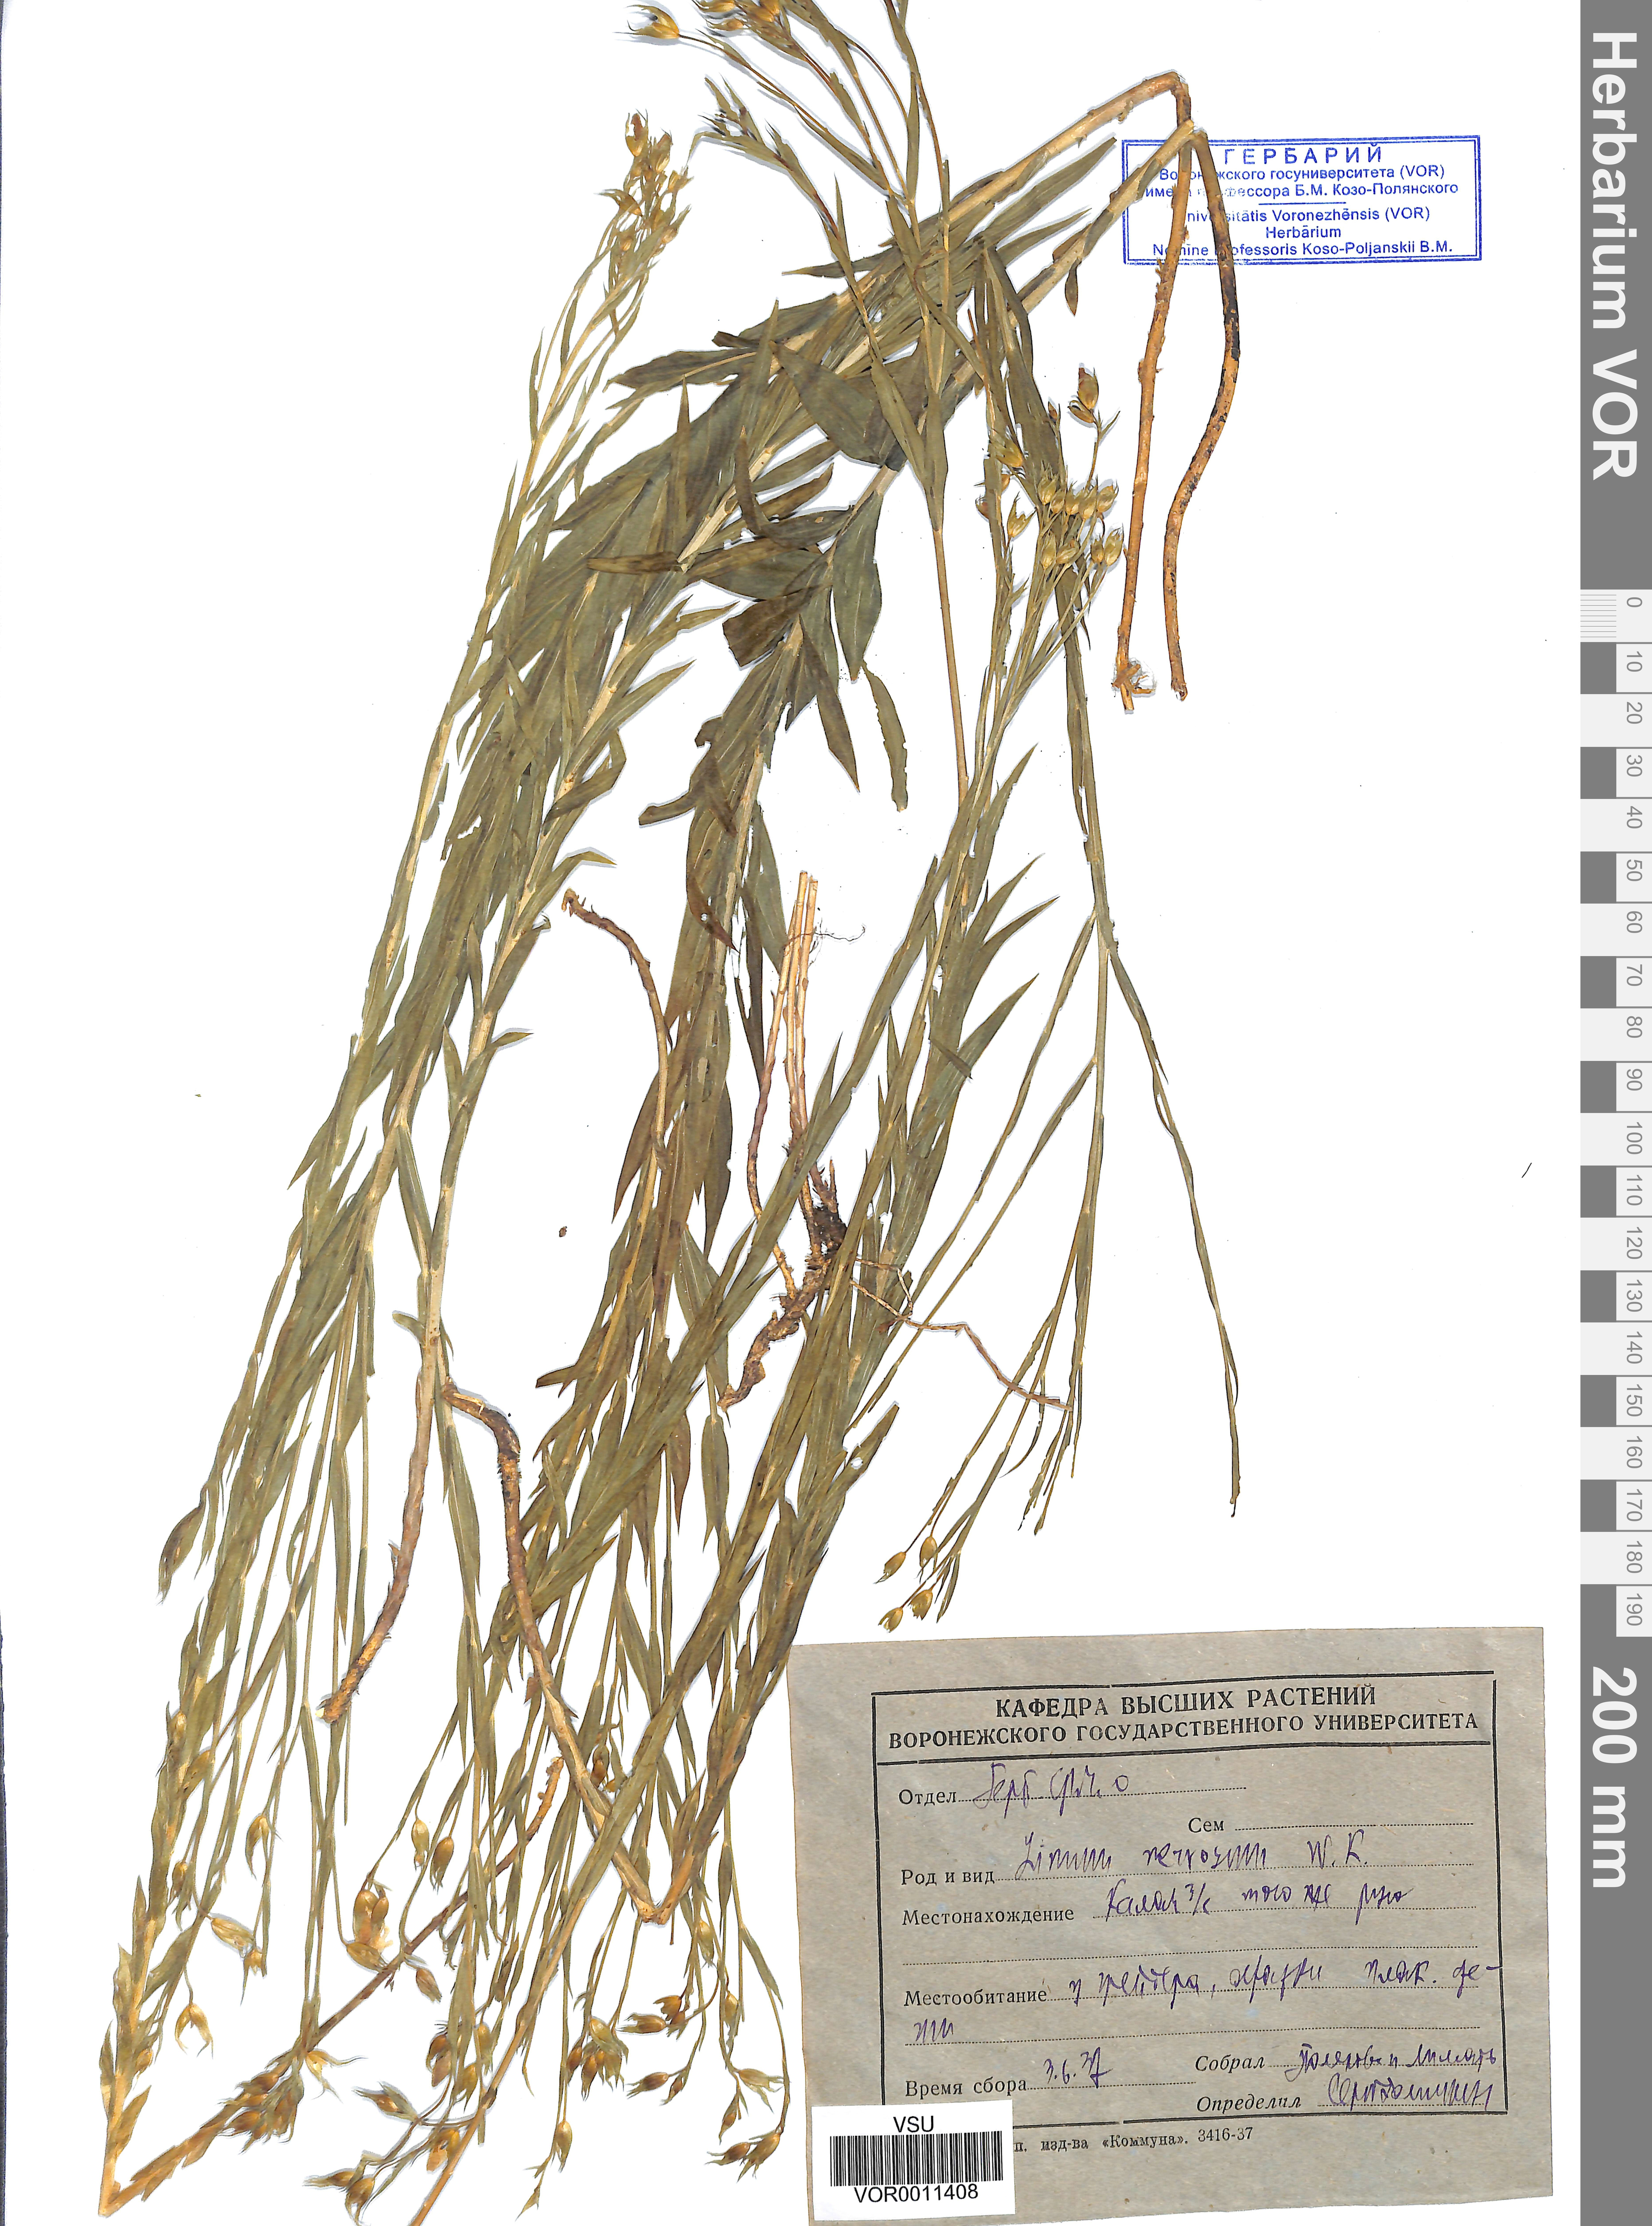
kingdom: Plantae
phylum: Tracheophyta
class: Magnoliopsida
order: Malpighiales
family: Linaceae
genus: Linum
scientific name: Linum nervosum
